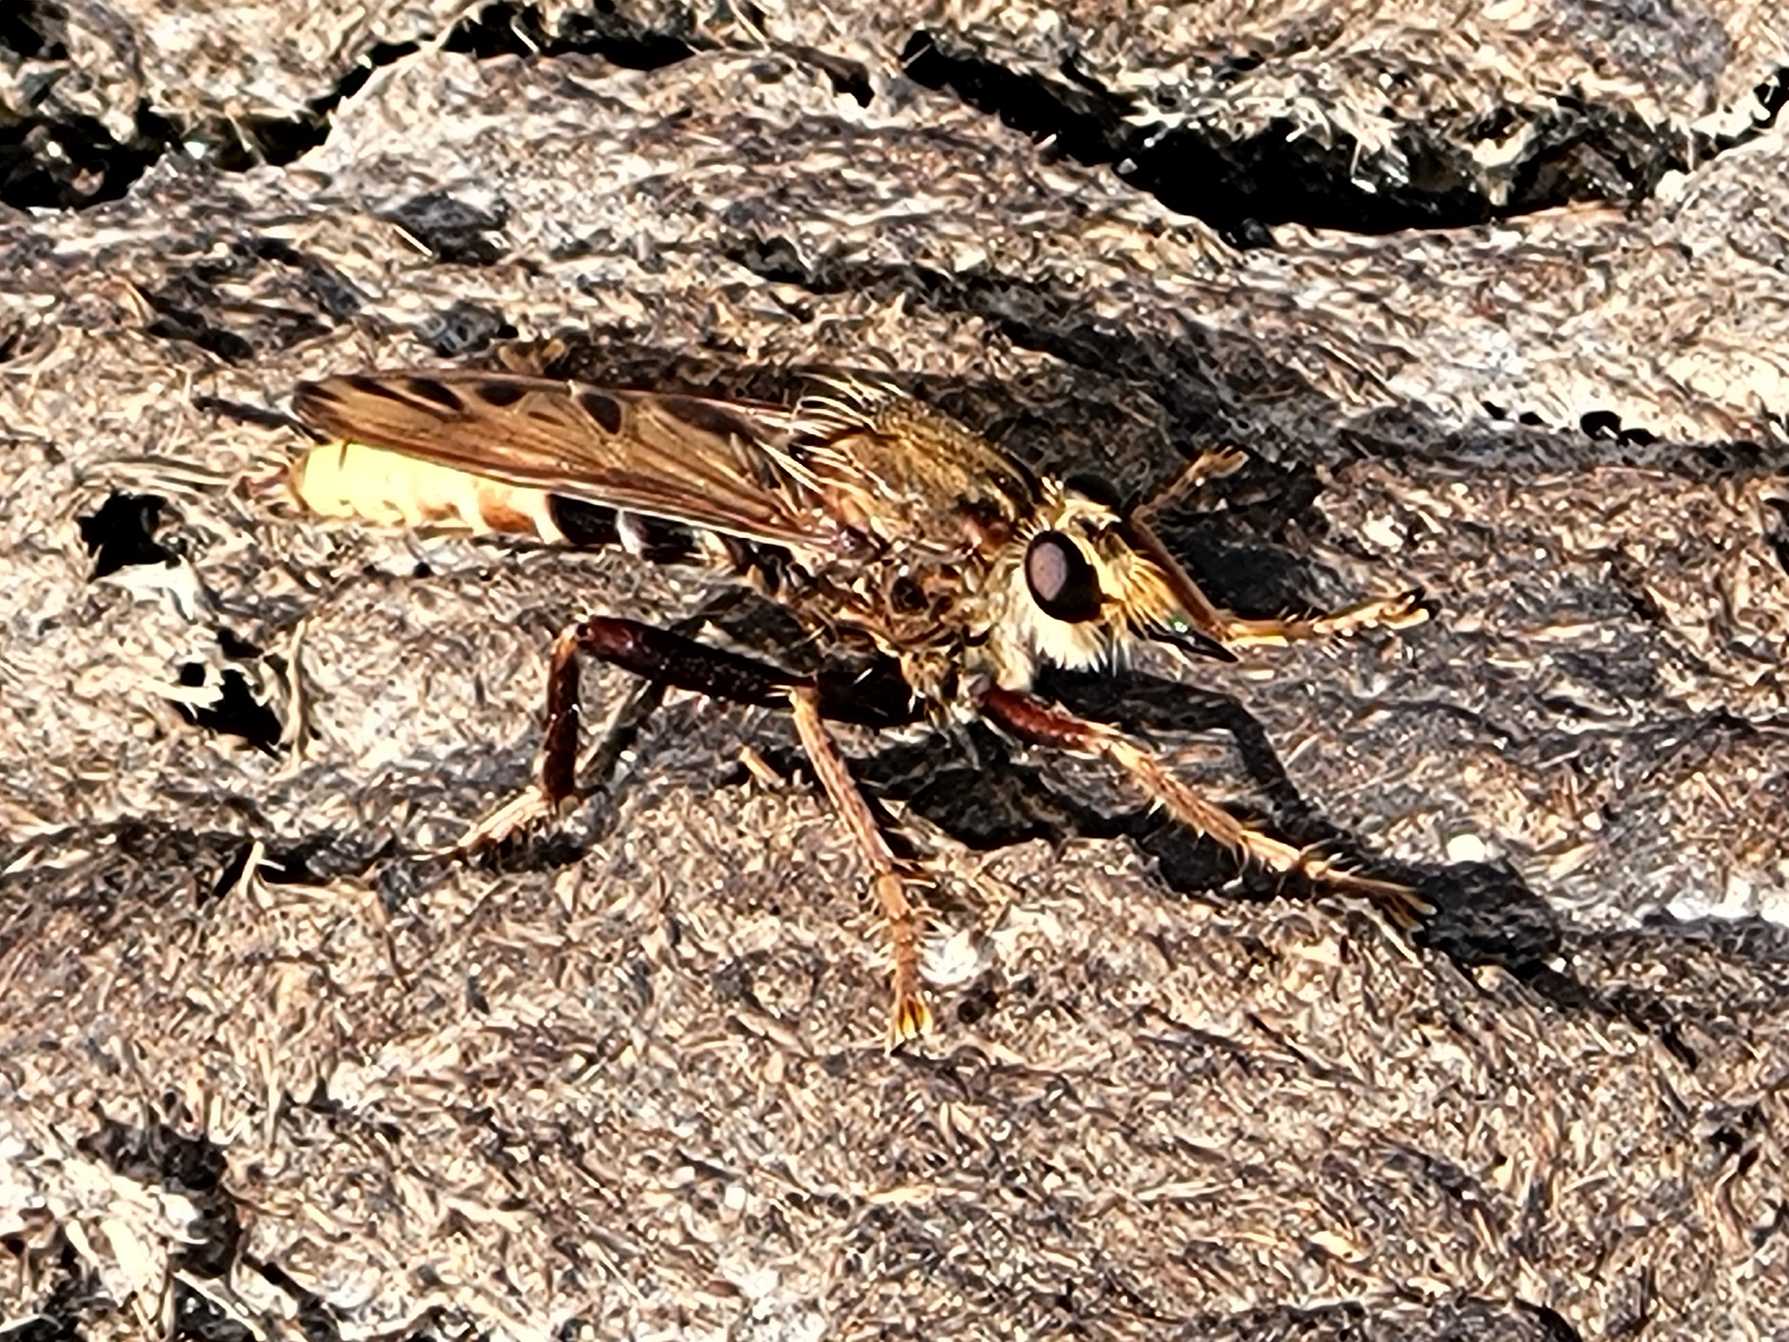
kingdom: Animalia
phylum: Arthropoda
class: Insecta
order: Diptera
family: Asilidae
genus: Asilus
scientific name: Asilus crabroniformis
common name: Stor gødningsrovflue
